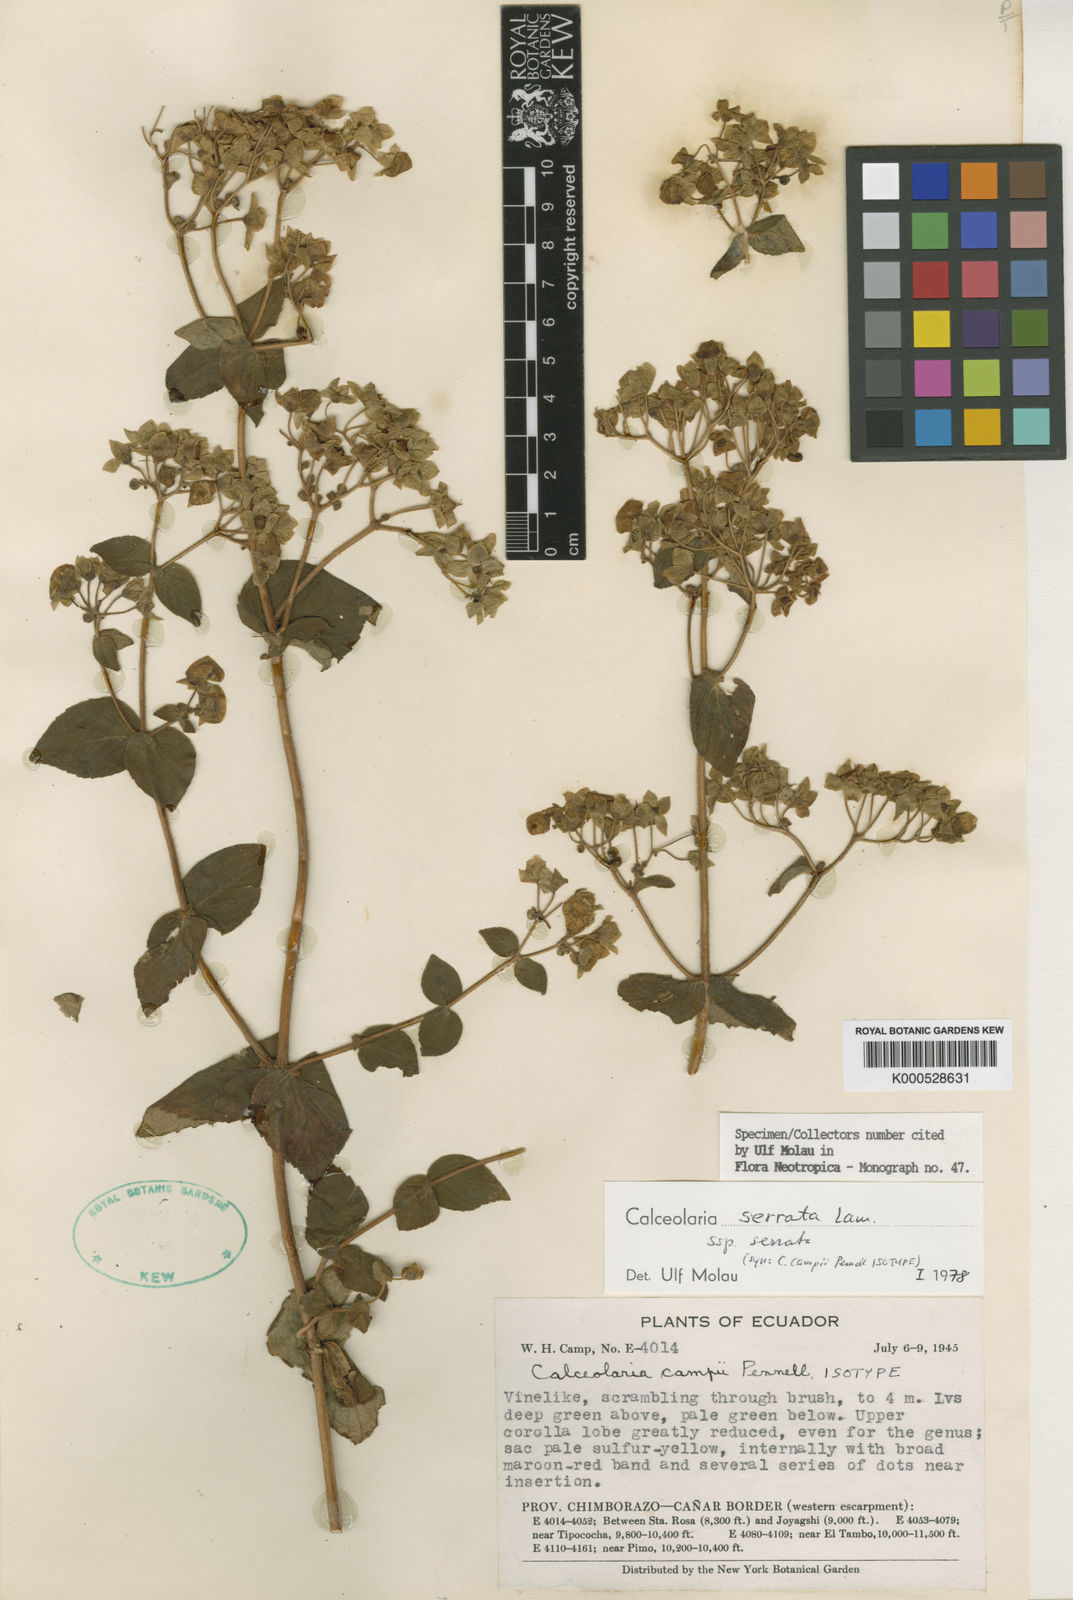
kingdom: Plantae
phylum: Tracheophyta
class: Magnoliopsida
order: Lamiales
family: Calceolariaceae
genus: Calceolaria
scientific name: Calceolaria serrata
